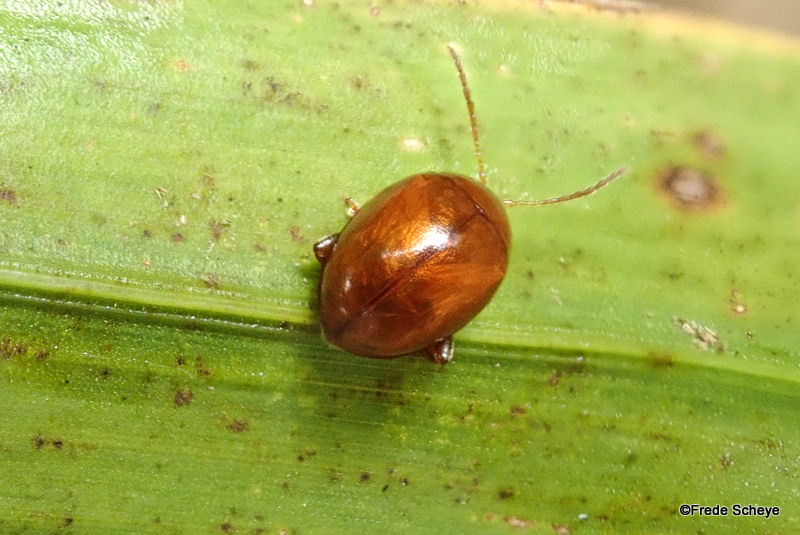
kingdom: Animalia
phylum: Arthropoda
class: Insecta
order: Coleoptera
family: Chrysomelidae
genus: Pistosia
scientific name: Pistosia testacea
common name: Tidselkuglebille
